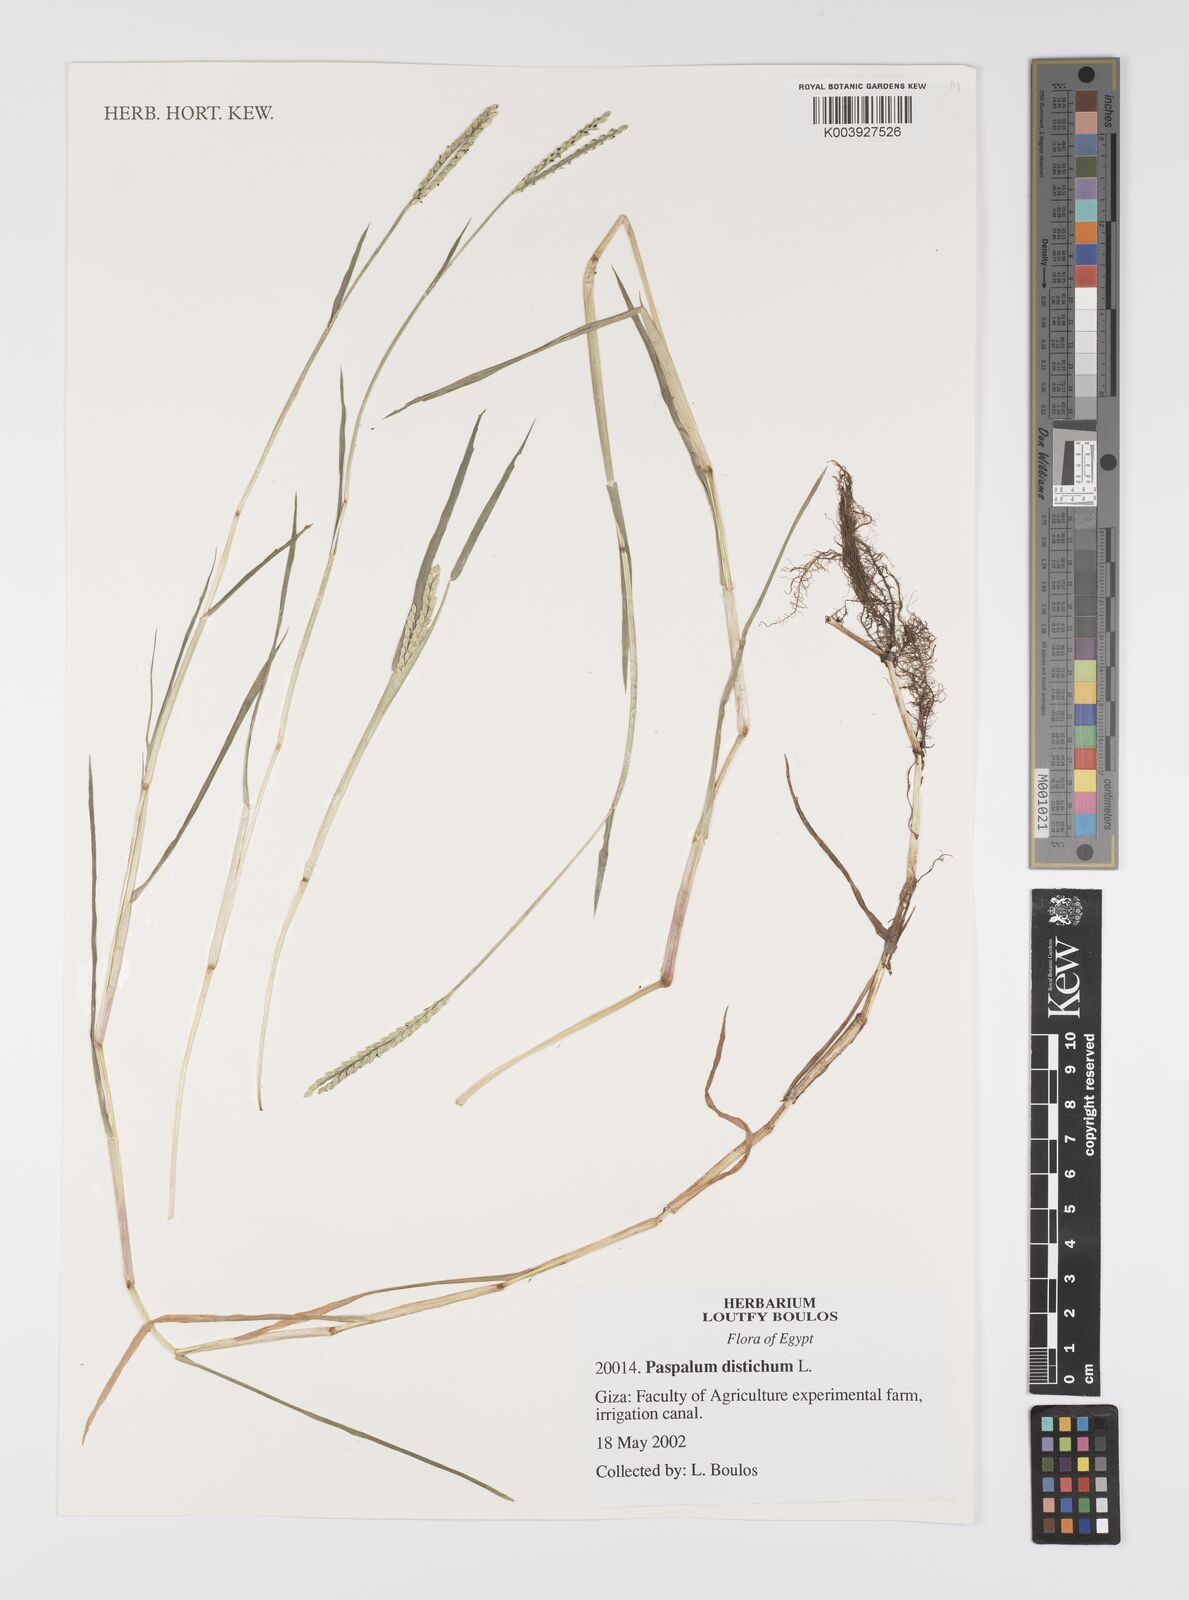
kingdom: Plantae
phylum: Tracheophyta
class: Liliopsida
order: Poales
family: Poaceae
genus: Paspalum
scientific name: Paspalum distichum
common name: Knotgrass
